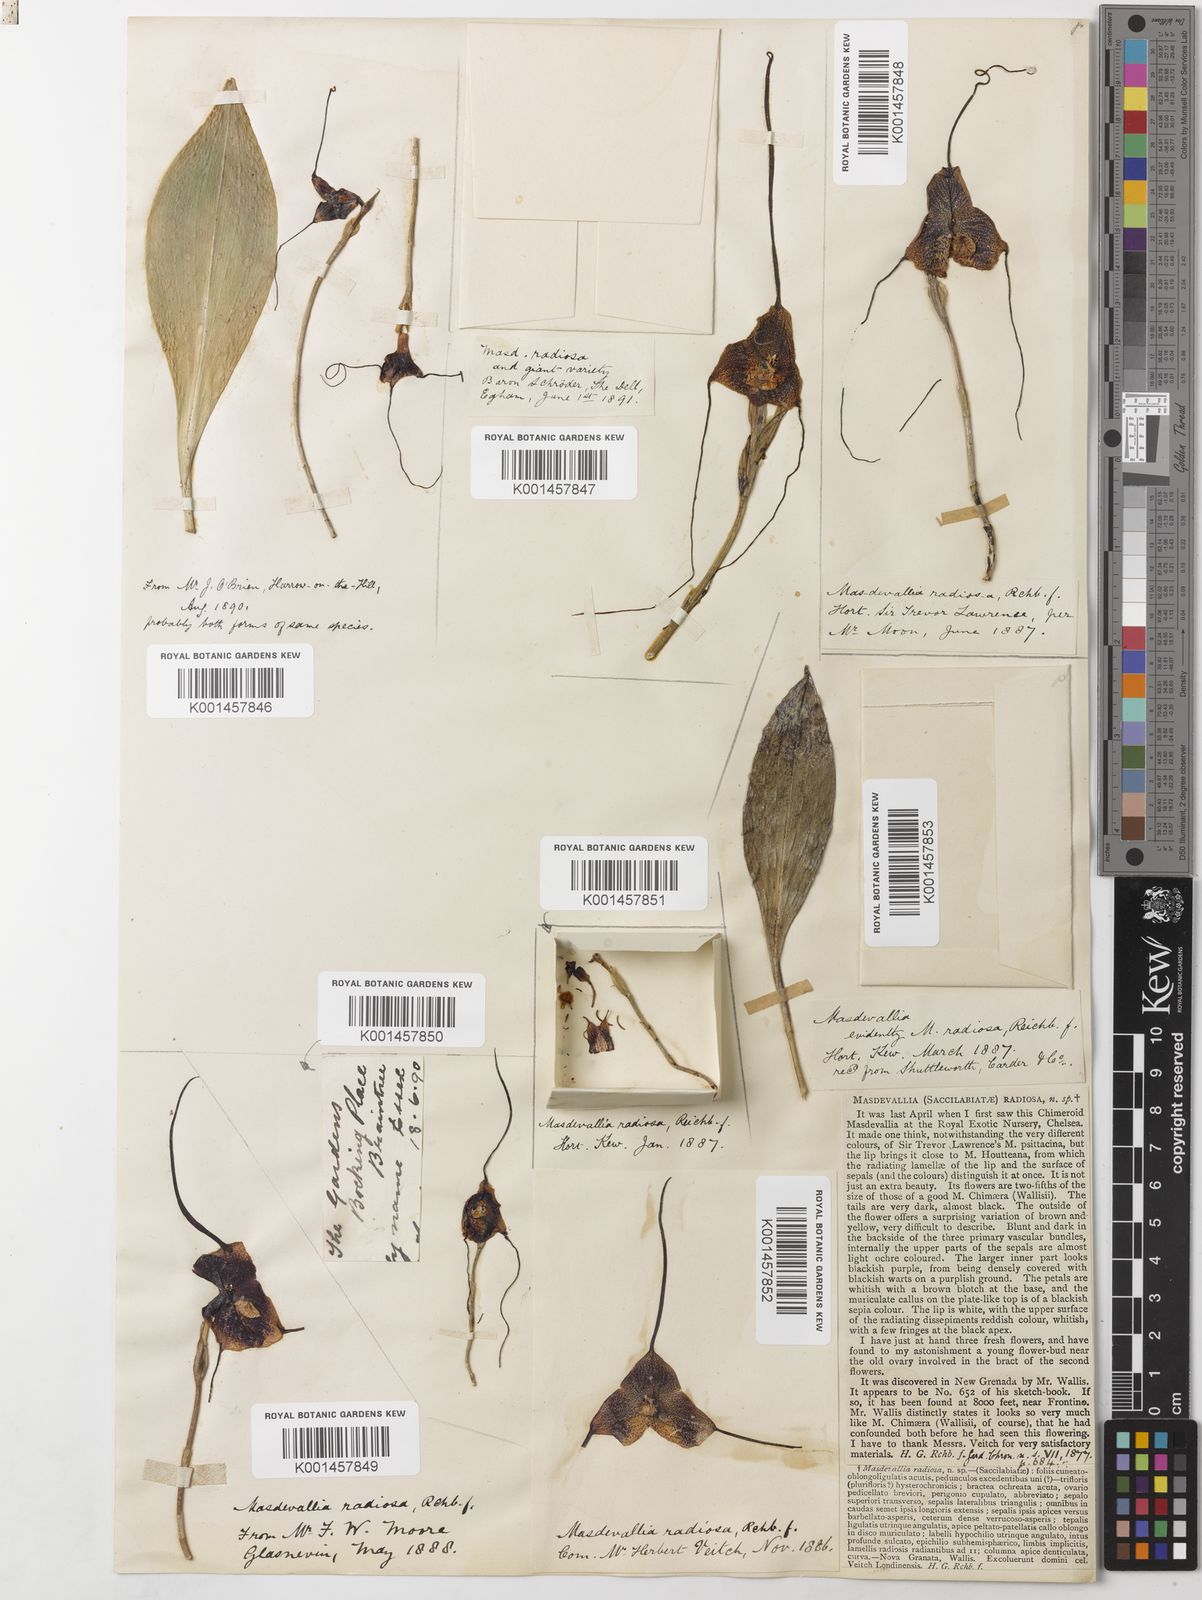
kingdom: Plantae
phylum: Tracheophyta
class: Liliopsida
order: Asparagales
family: Orchidaceae
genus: Dracula
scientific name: Dracula radiosa
